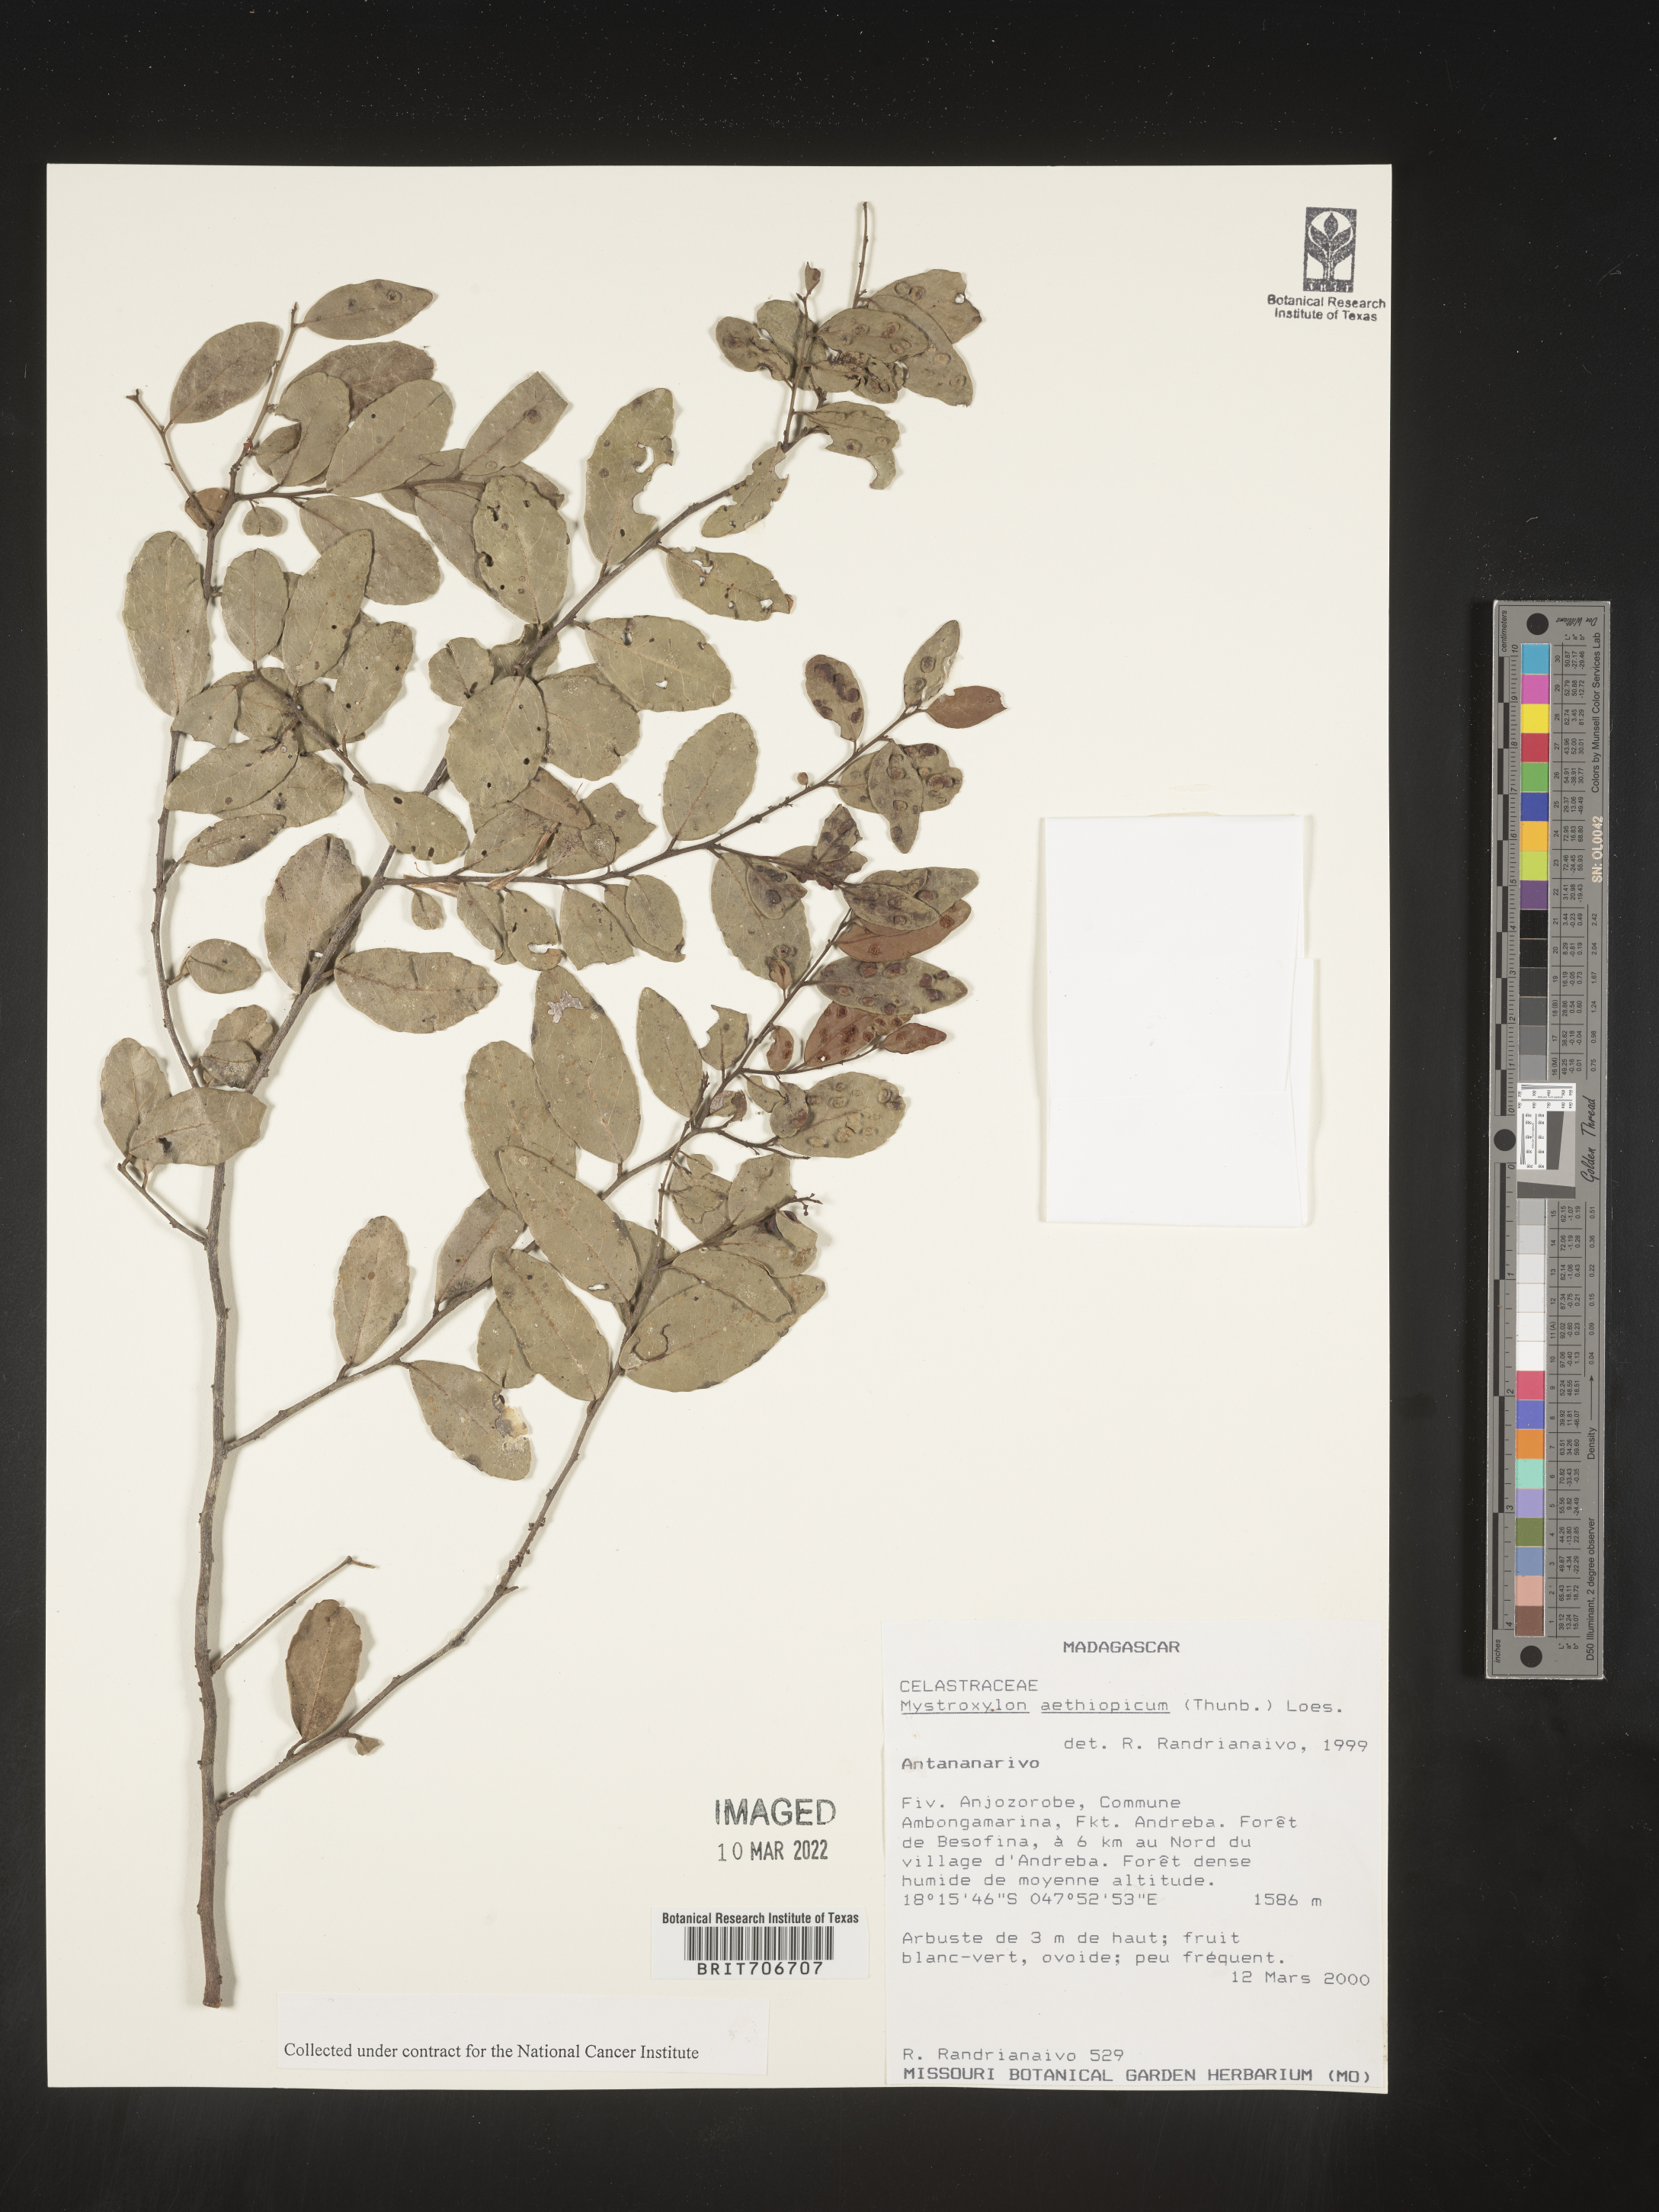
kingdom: Plantae
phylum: Tracheophyta
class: Magnoliopsida
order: Celastrales
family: Celastraceae
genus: Mystroxylon
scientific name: Mystroxylon
